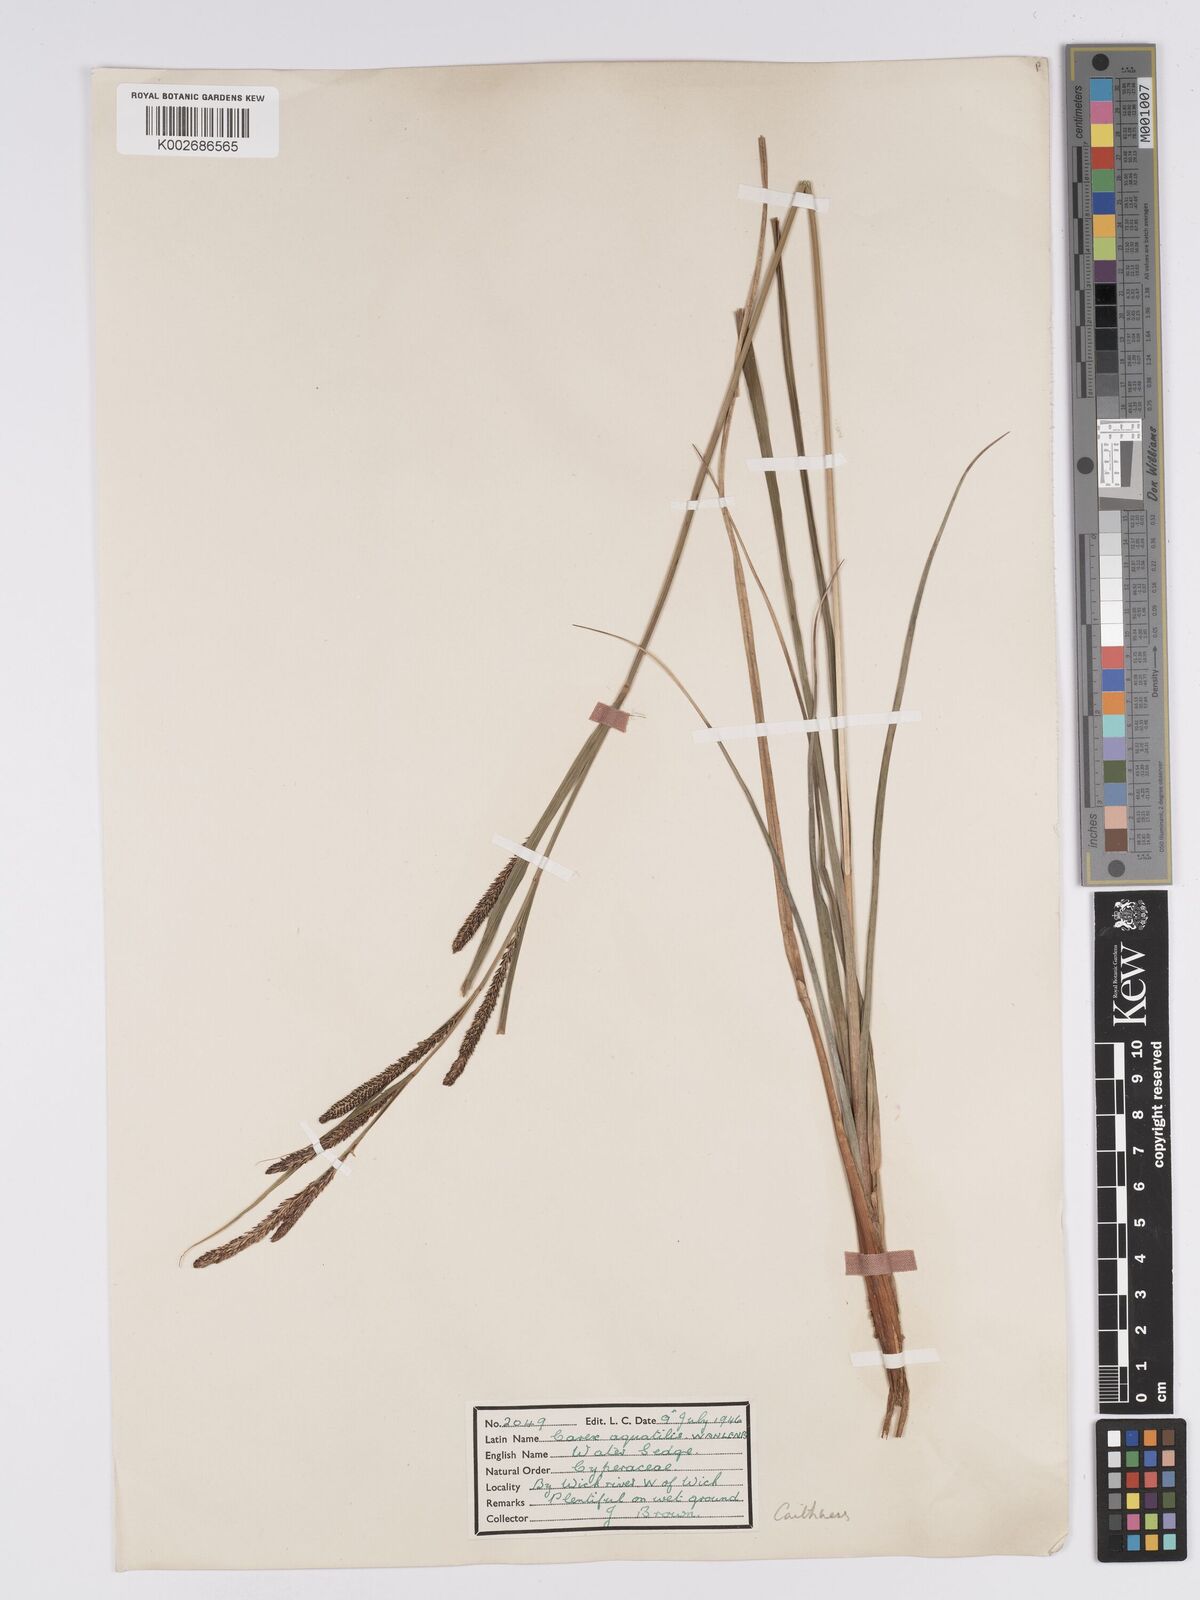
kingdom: Plantae
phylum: Tracheophyta
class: Liliopsida
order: Poales
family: Cyperaceae
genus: Carex
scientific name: Carex aquatilis
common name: Water sedge
